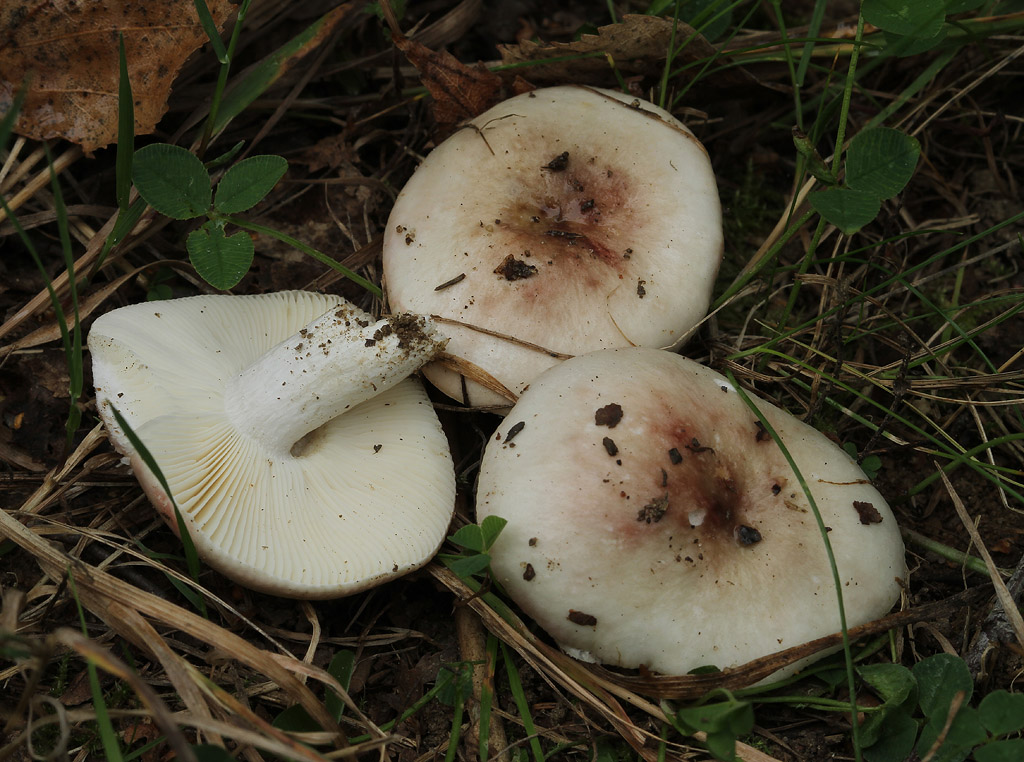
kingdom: Fungi
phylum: Basidiomycota
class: Agaricomycetes
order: Russulales
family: Russulaceae
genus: Russula
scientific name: Russula depallens
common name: falmende skørhat
